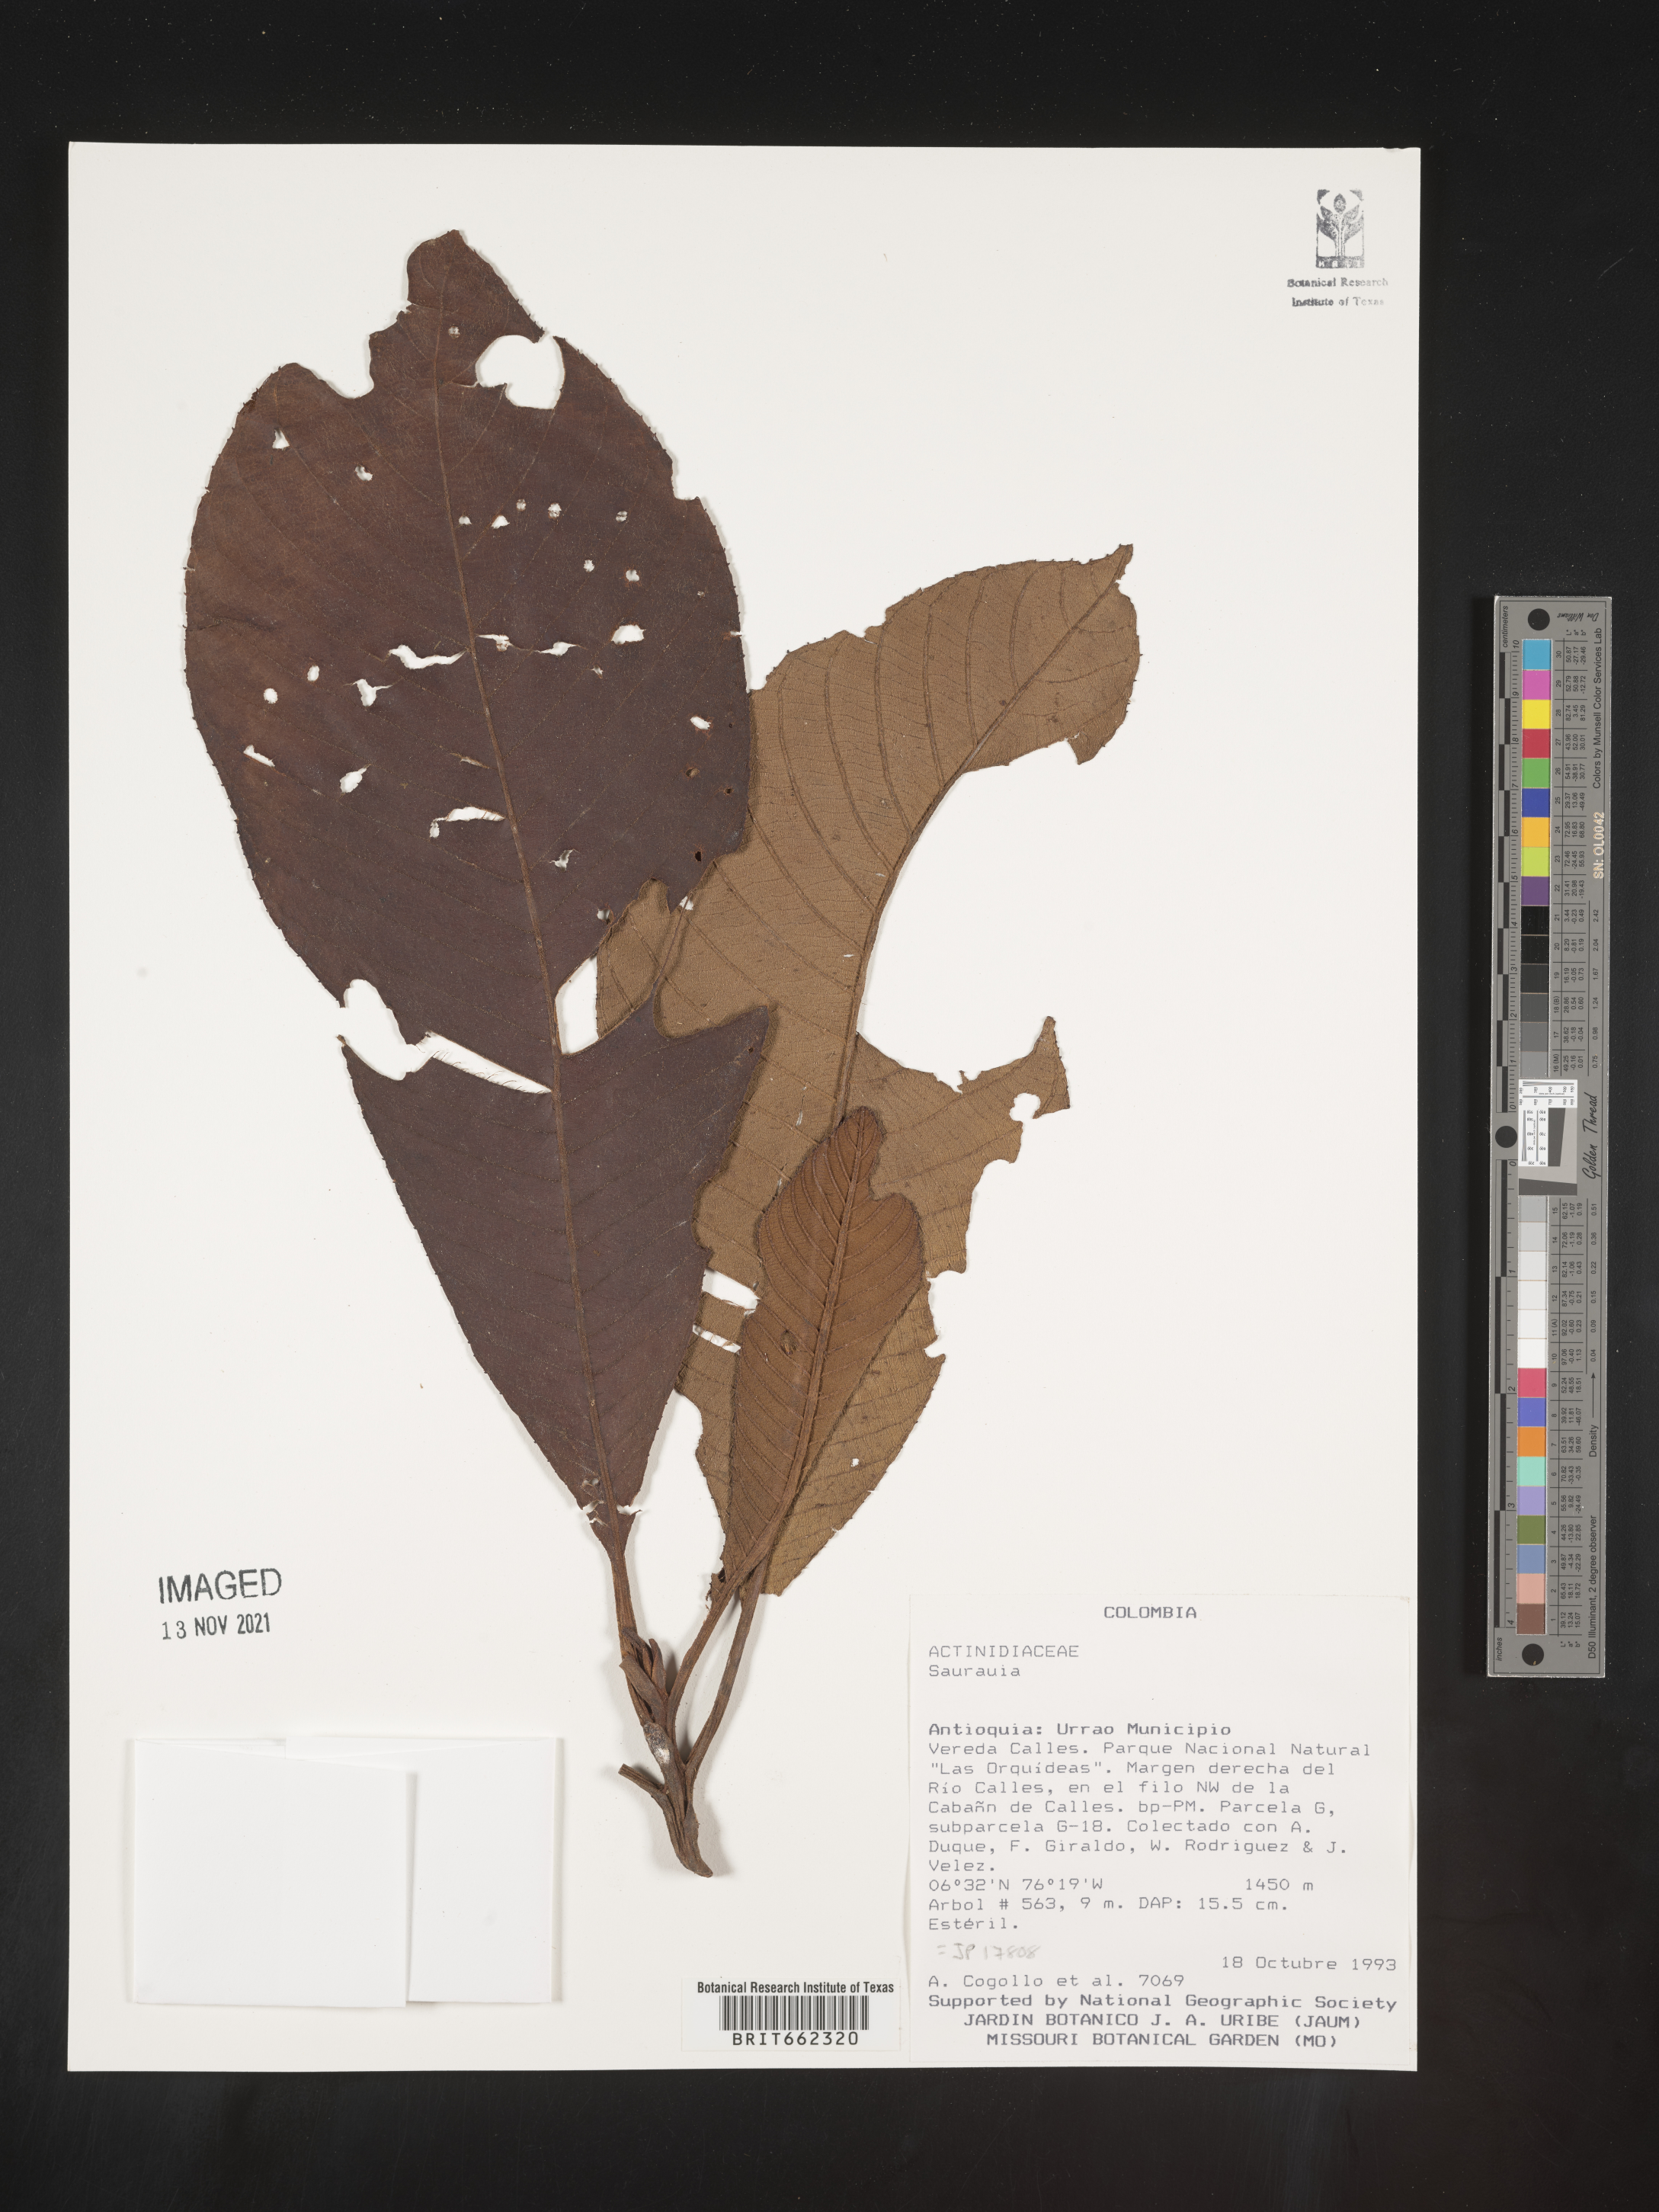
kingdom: Plantae
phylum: Tracheophyta
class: Magnoliopsida
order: Ericales
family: Actinidiaceae
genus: Saurauia
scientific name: Saurauia
